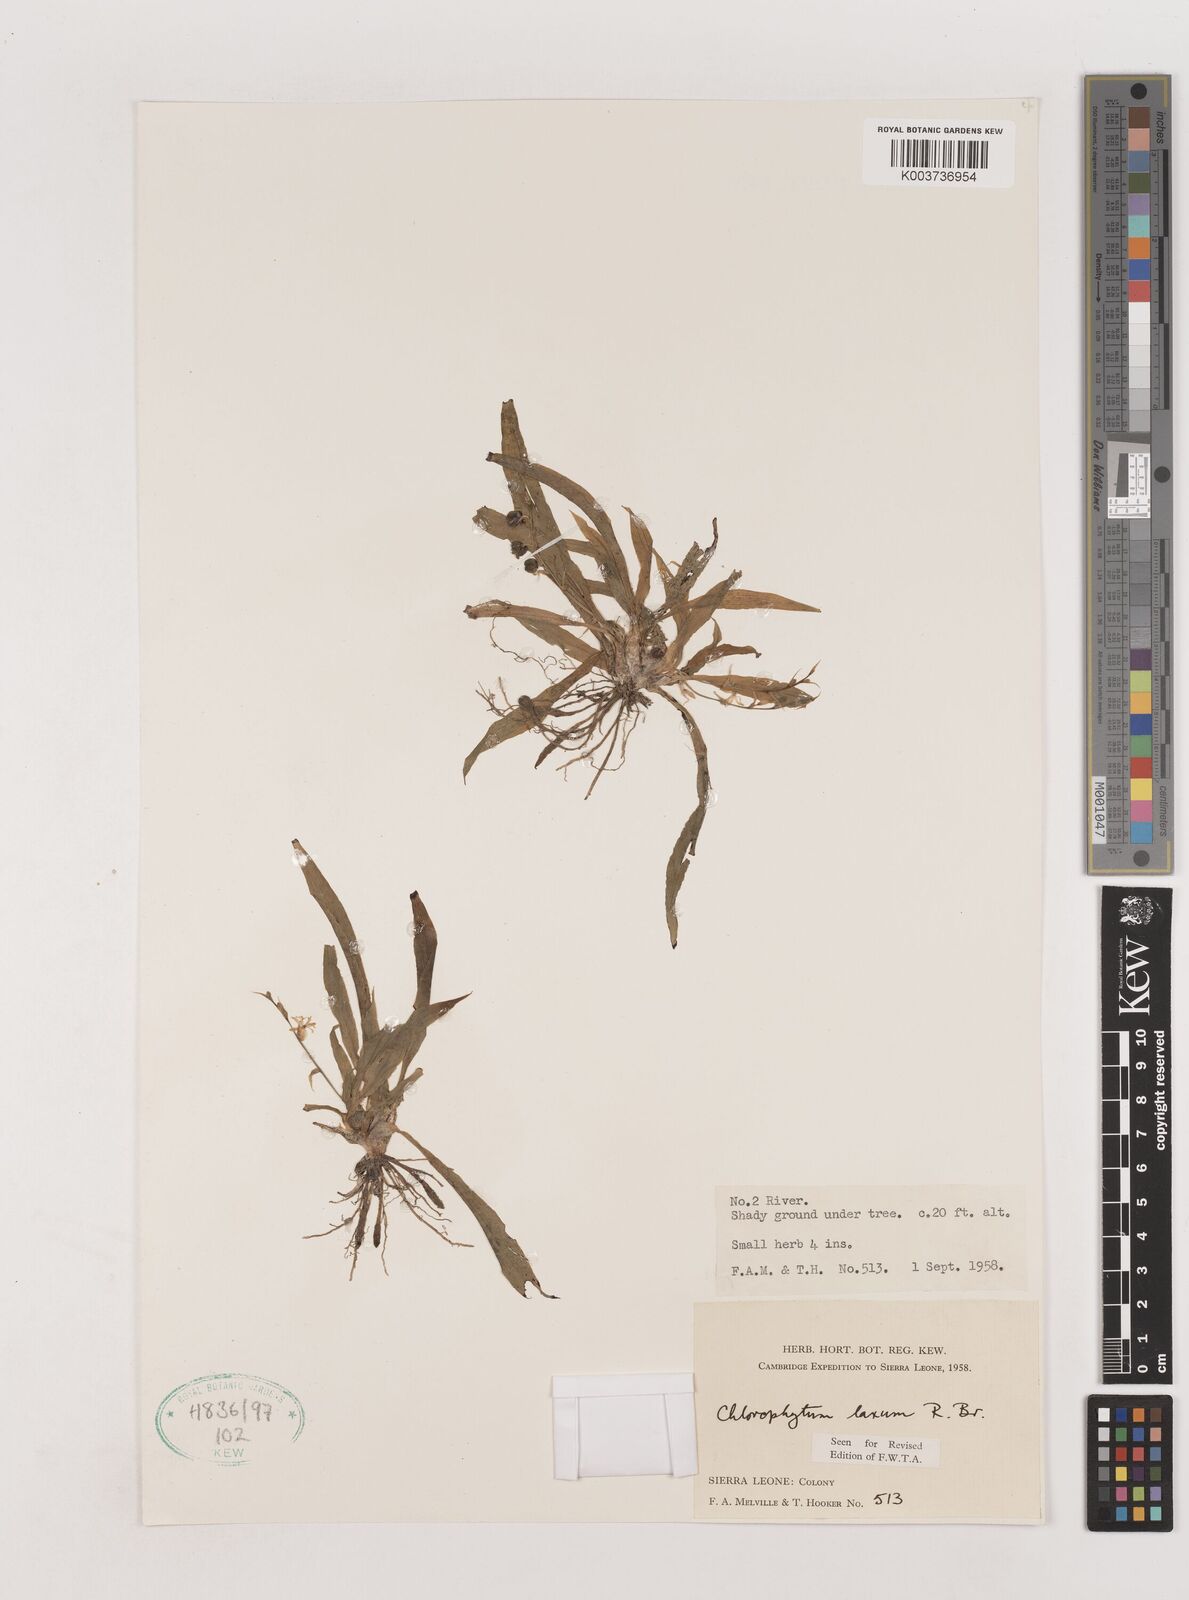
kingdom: Plantae
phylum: Tracheophyta
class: Liliopsida
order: Asparagales
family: Asparagaceae
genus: Chlorophytum
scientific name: Chlorophytum laxum
